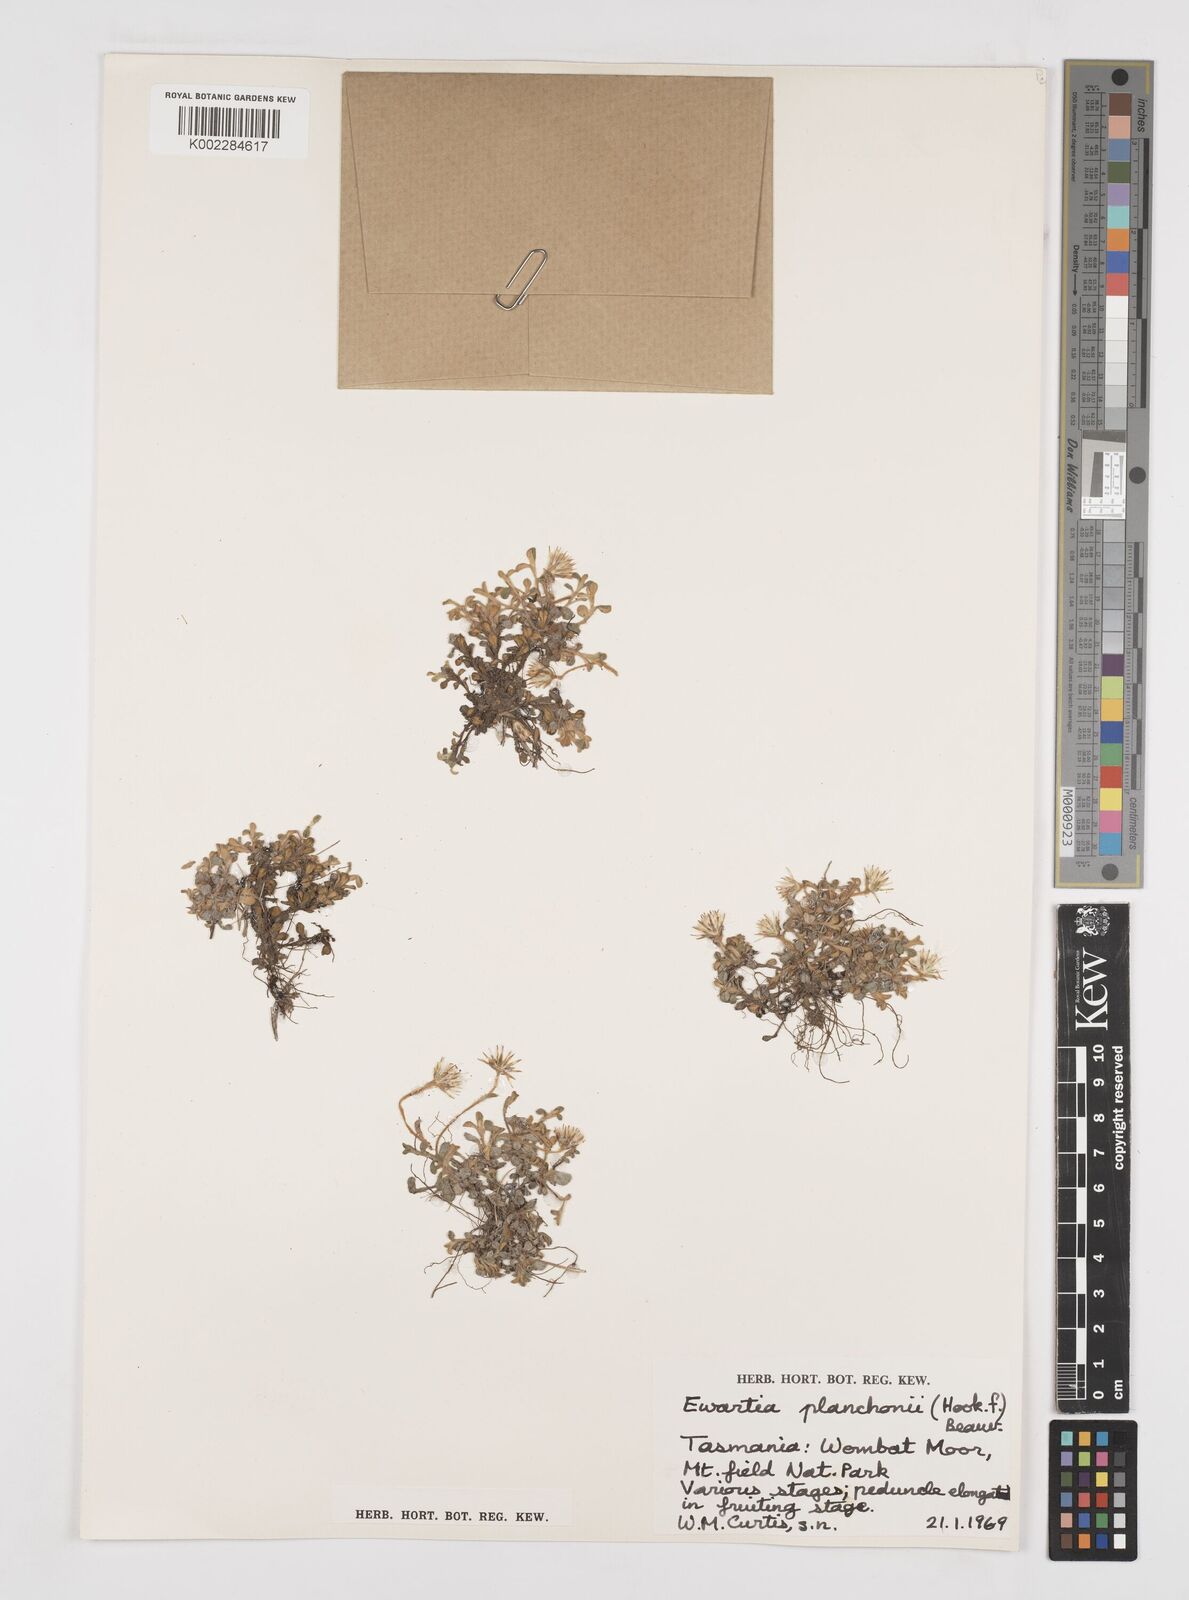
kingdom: Plantae
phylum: Tracheophyta
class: Magnoliopsida
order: Asterales
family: Asteraceae
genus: Ewartia
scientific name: Ewartia planchonii
